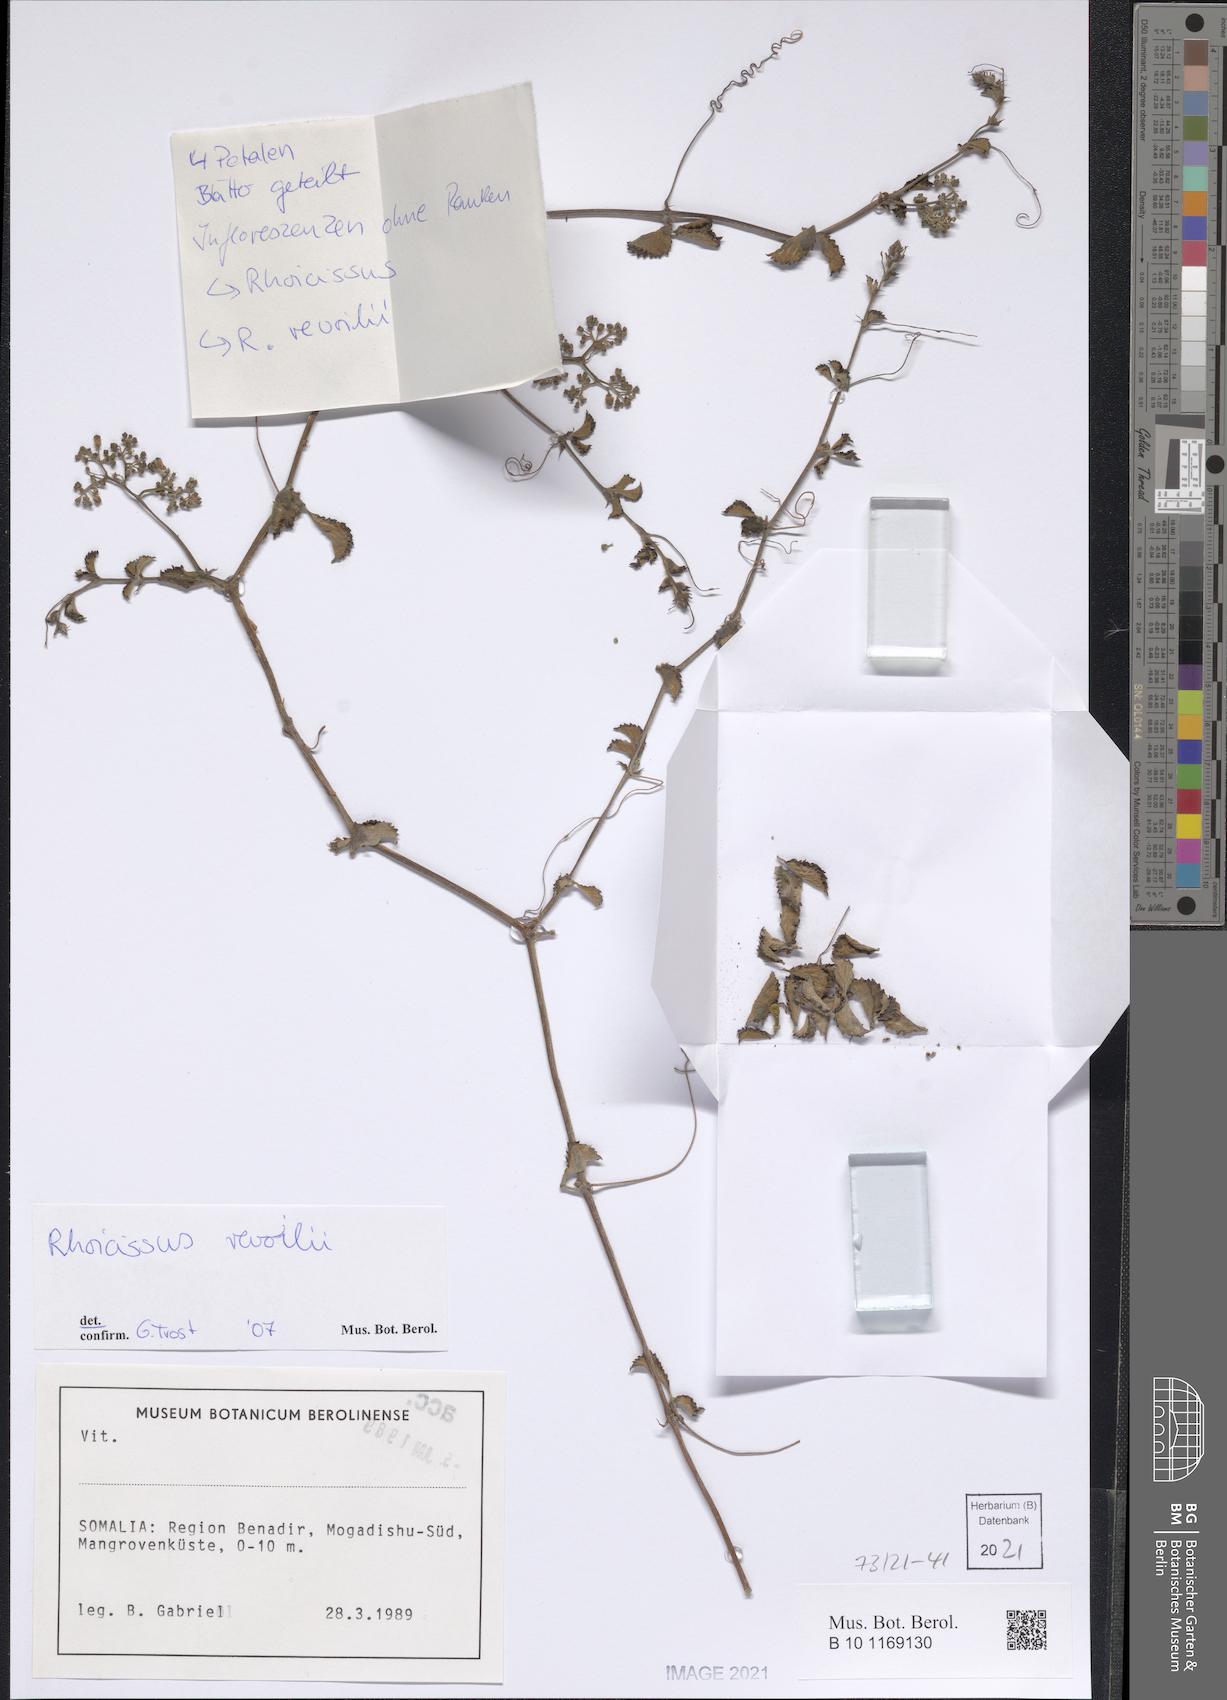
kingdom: Plantae
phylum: Tracheophyta
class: Magnoliopsida
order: Vitales
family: Vitaceae
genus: Cyphostemma
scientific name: Cyphostemma digitatum
